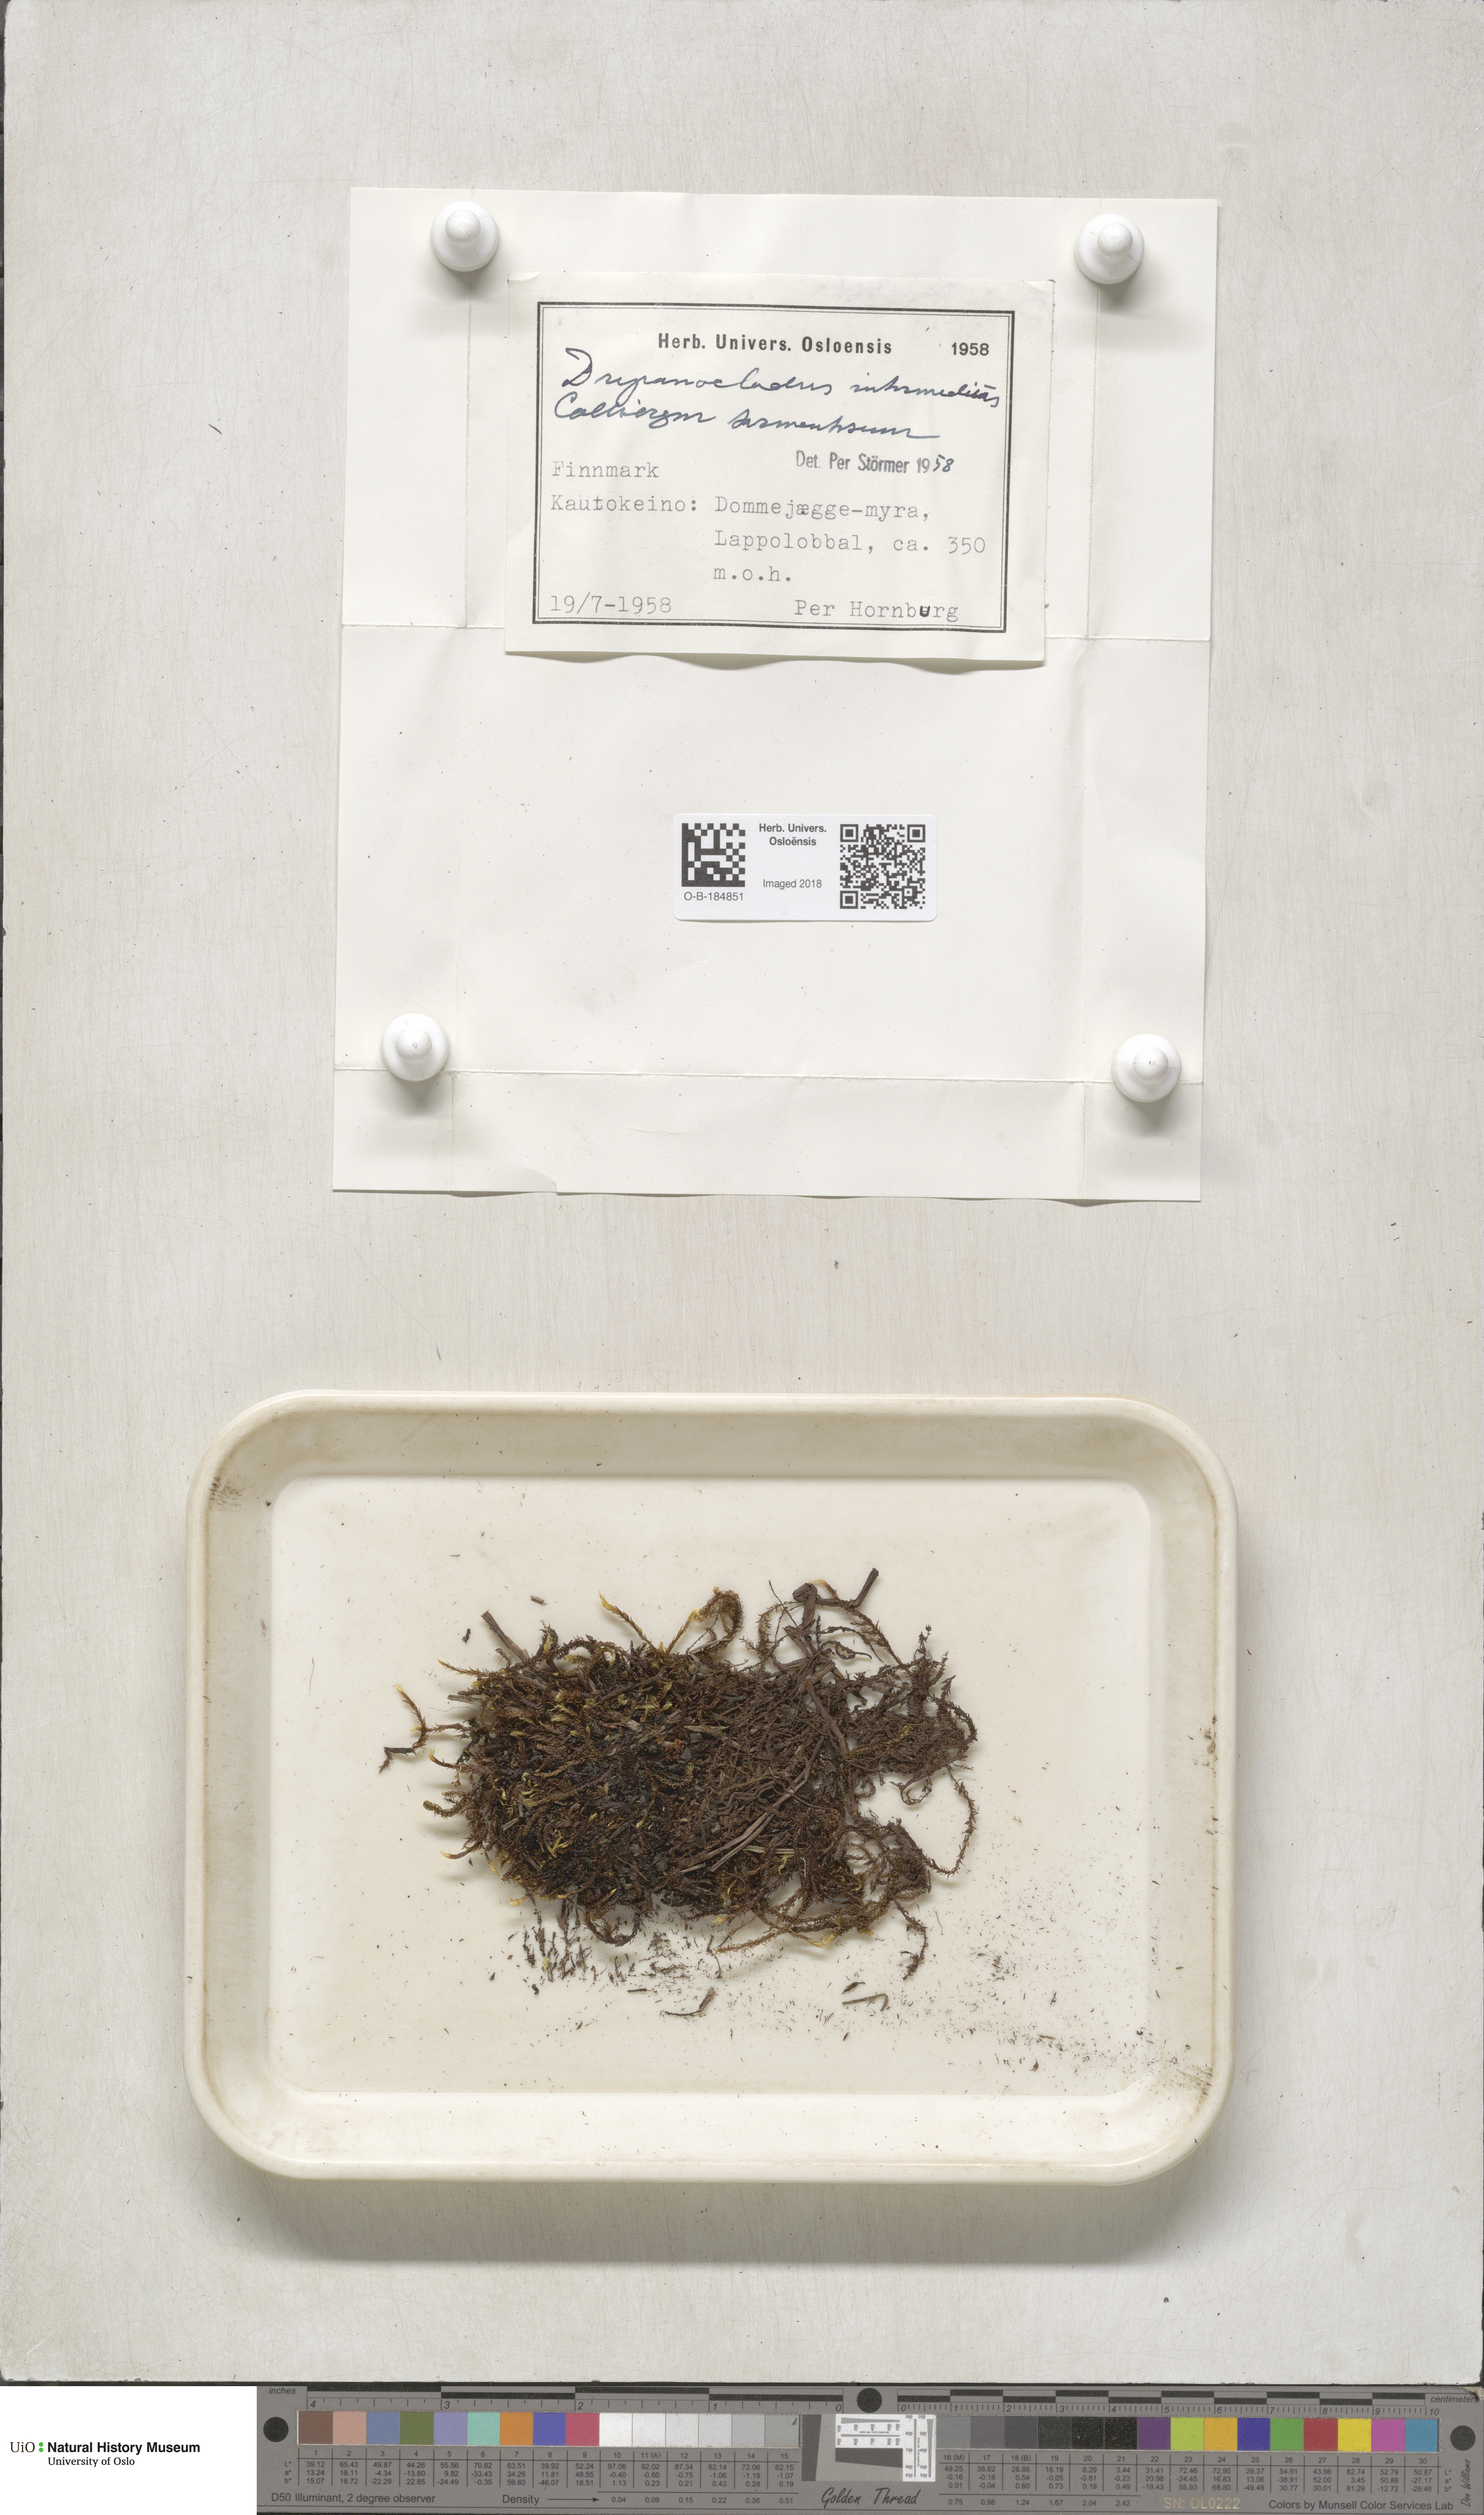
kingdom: Plantae
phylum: Bryophyta
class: Bryopsida
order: Hypnales
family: Scorpidiaceae
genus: Scorpidium
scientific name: Scorpidium cossonii
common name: Cosson's hook moss
